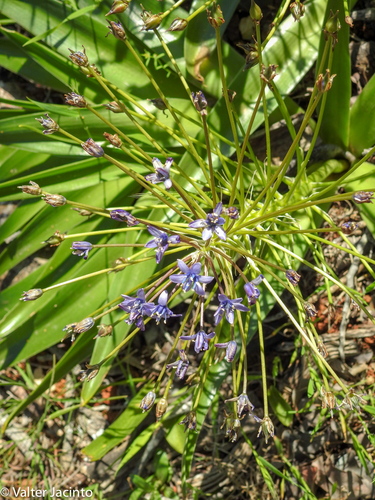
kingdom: Plantae
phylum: Tracheophyta
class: Liliopsida
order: Asparagales
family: Asparagaceae
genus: Scilla
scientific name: Scilla peruviana
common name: Portuguese squill
